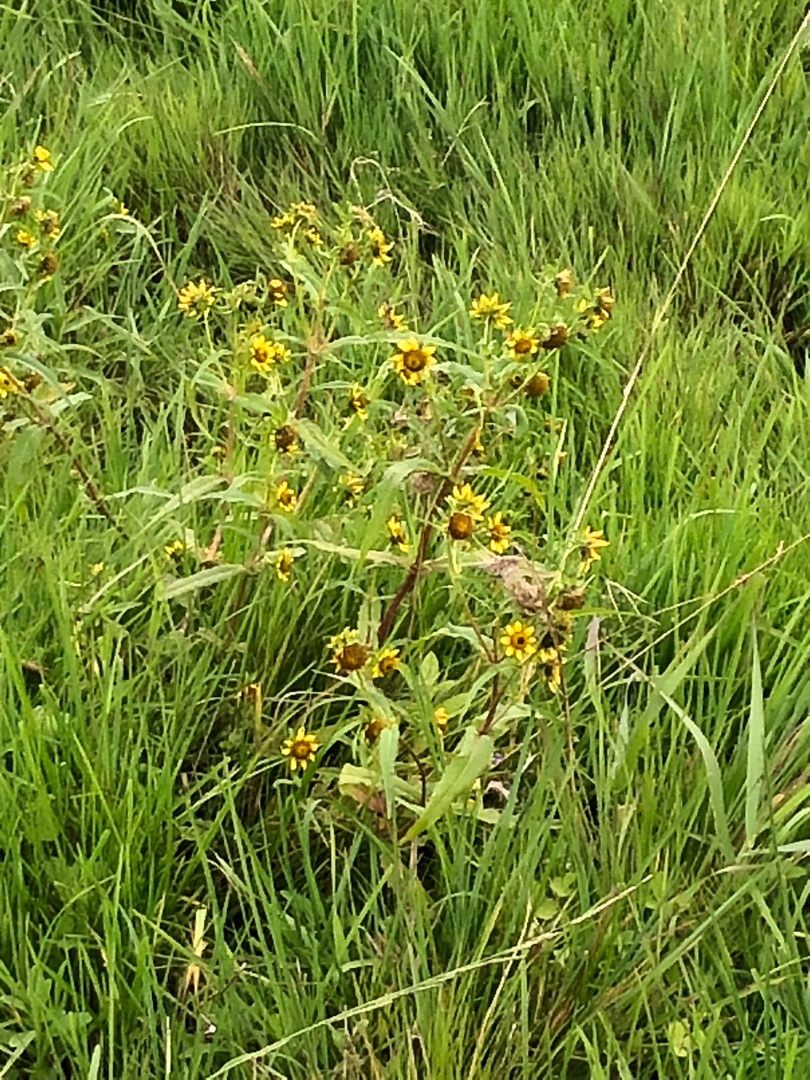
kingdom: Plantae
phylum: Tracheophyta
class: Magnoliopsida
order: Asterales
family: Asteraceae
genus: Bidens
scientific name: Bidens cernua
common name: Nikkende brøndsel
